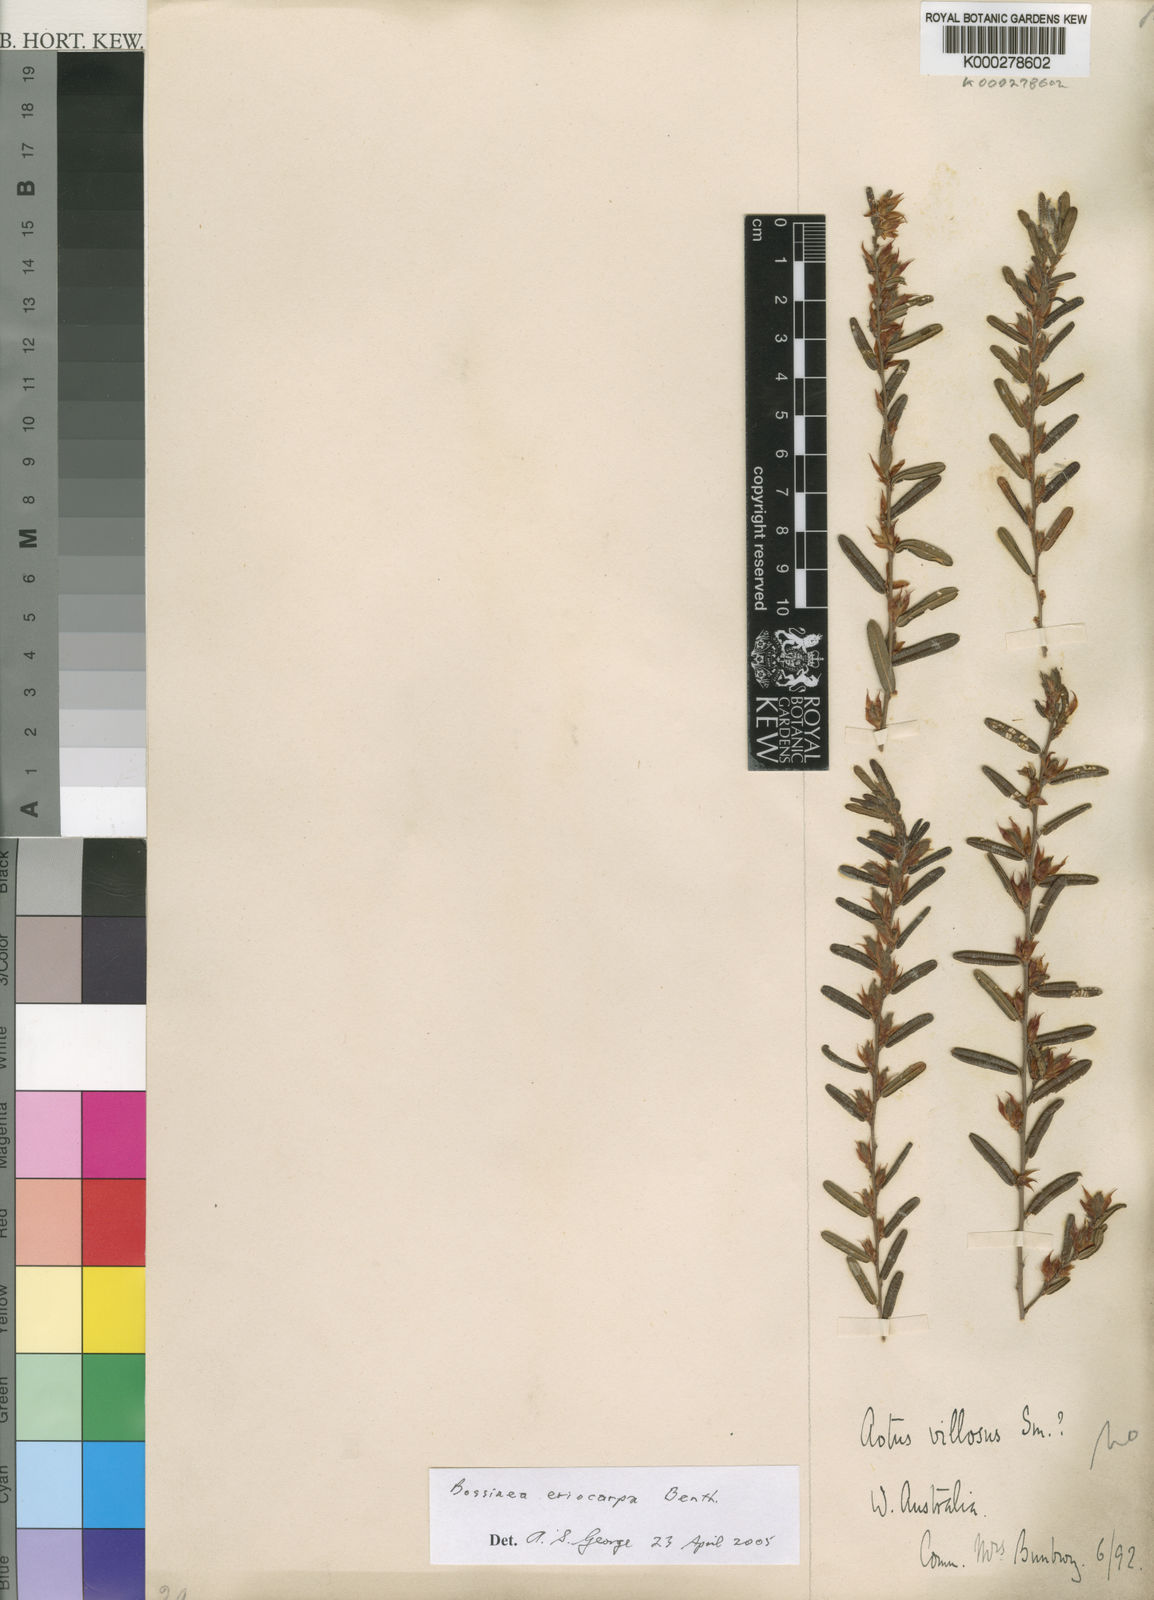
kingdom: Plantae
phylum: Tracheophyta
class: Magnoliopsida
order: Fabales
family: Fabaceae
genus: Bossiaea
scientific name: Bossiaea eriocarpa
